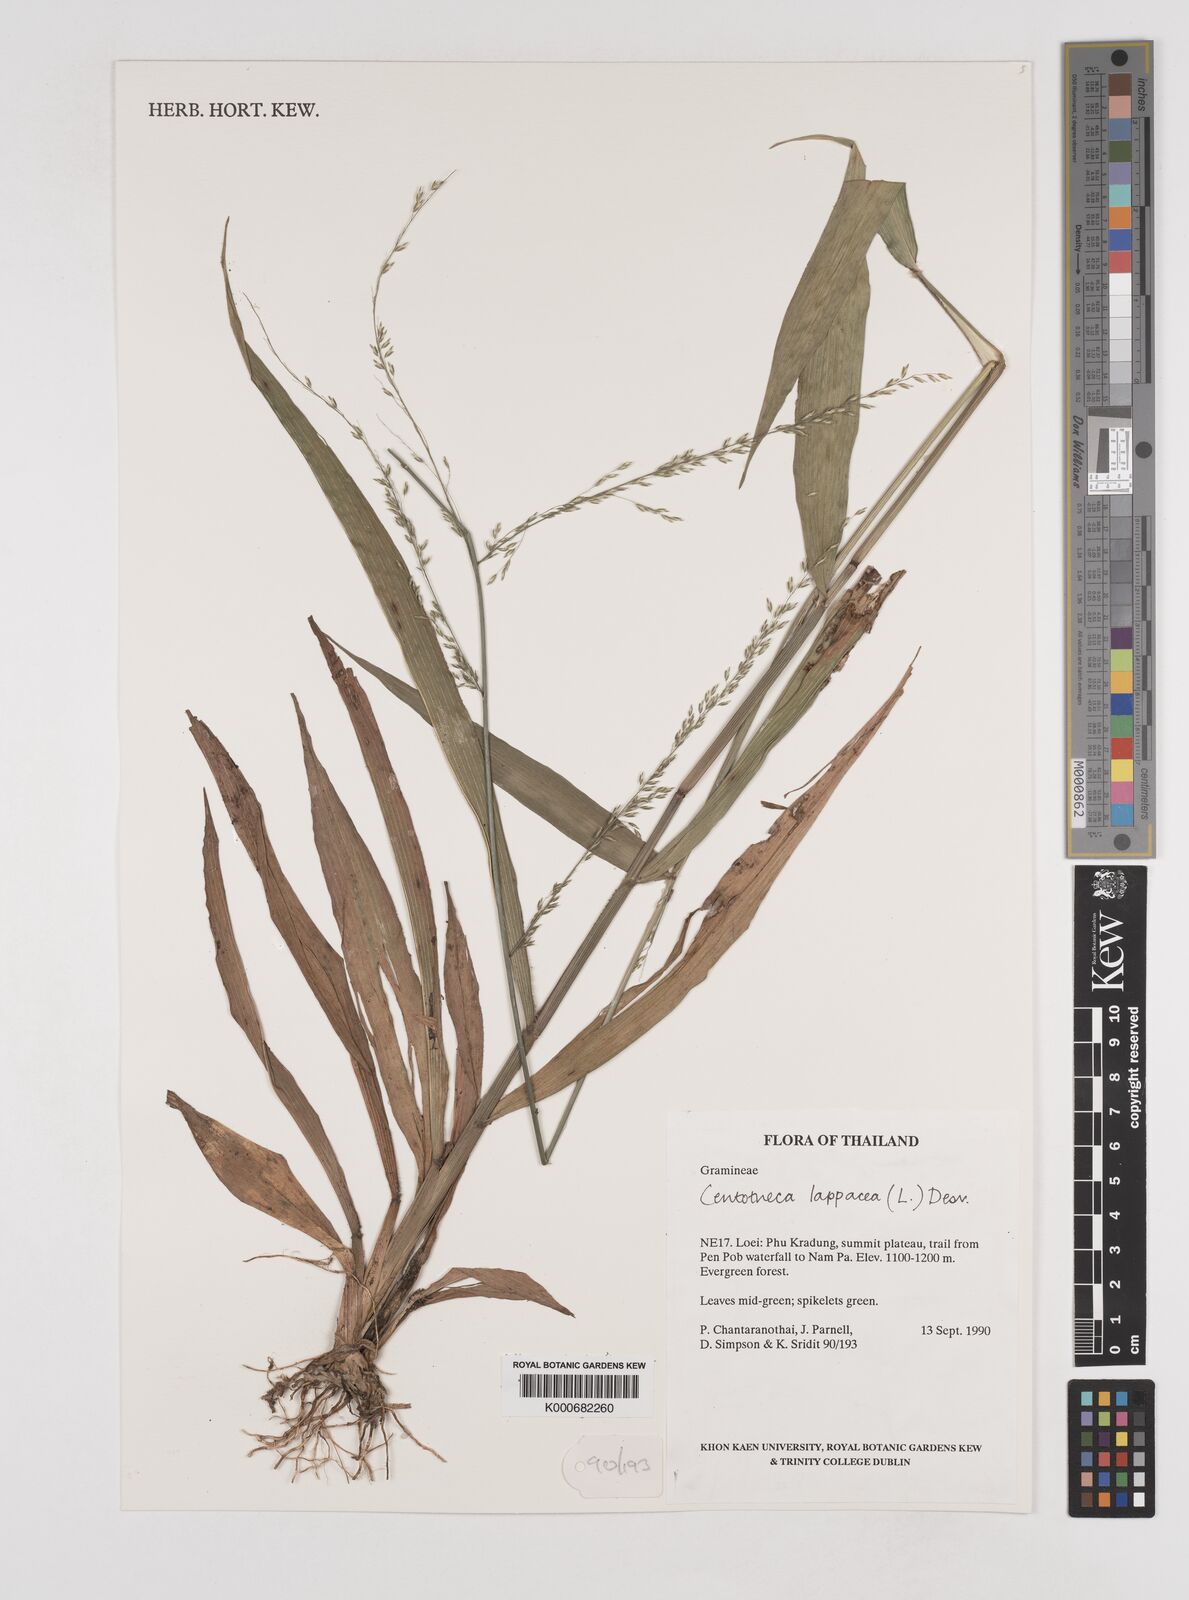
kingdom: Plantae
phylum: Tracheophyta
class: Liliopsida
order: Poales
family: Poaceae
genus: Centotheca
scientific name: Centotheca lappacea
